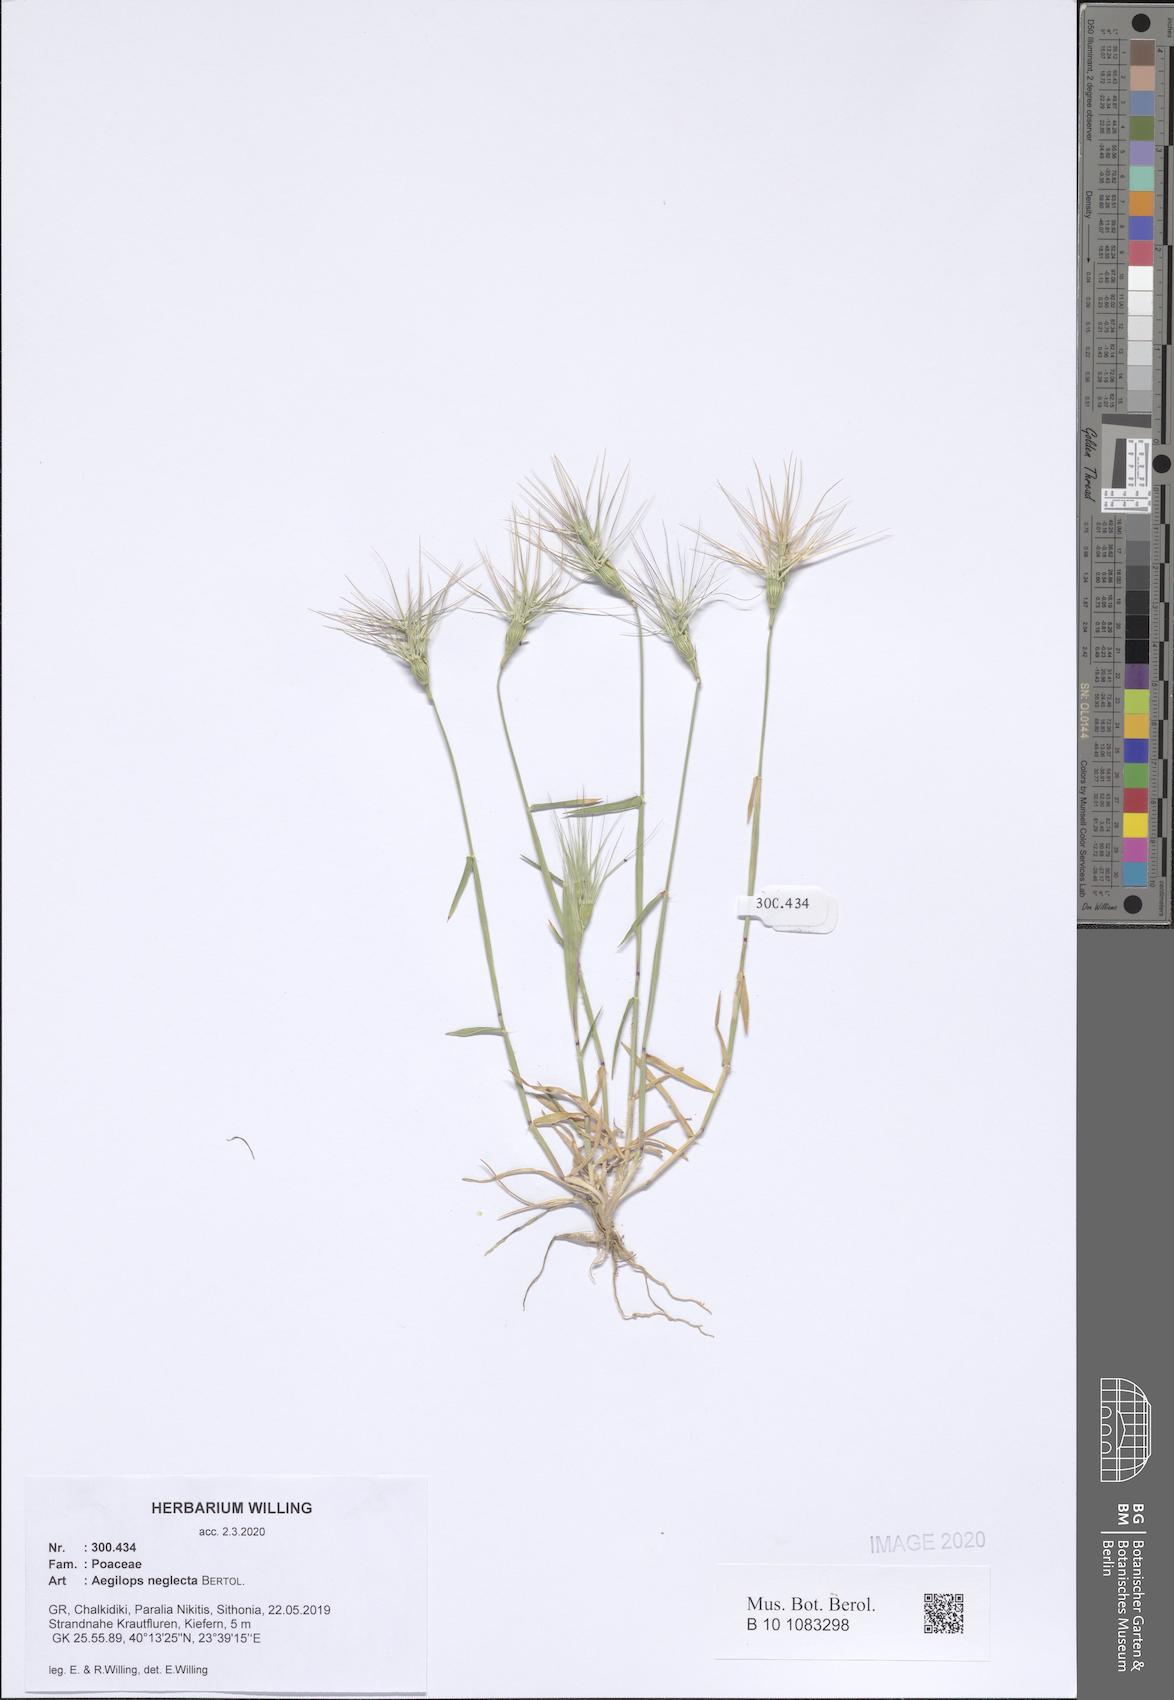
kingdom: Plantae
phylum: Tracheophyta
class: Liliopsida
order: Poales
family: Poaceae
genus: Aegilops
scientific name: Aegilops neglecta
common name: Three-awn goat grass
